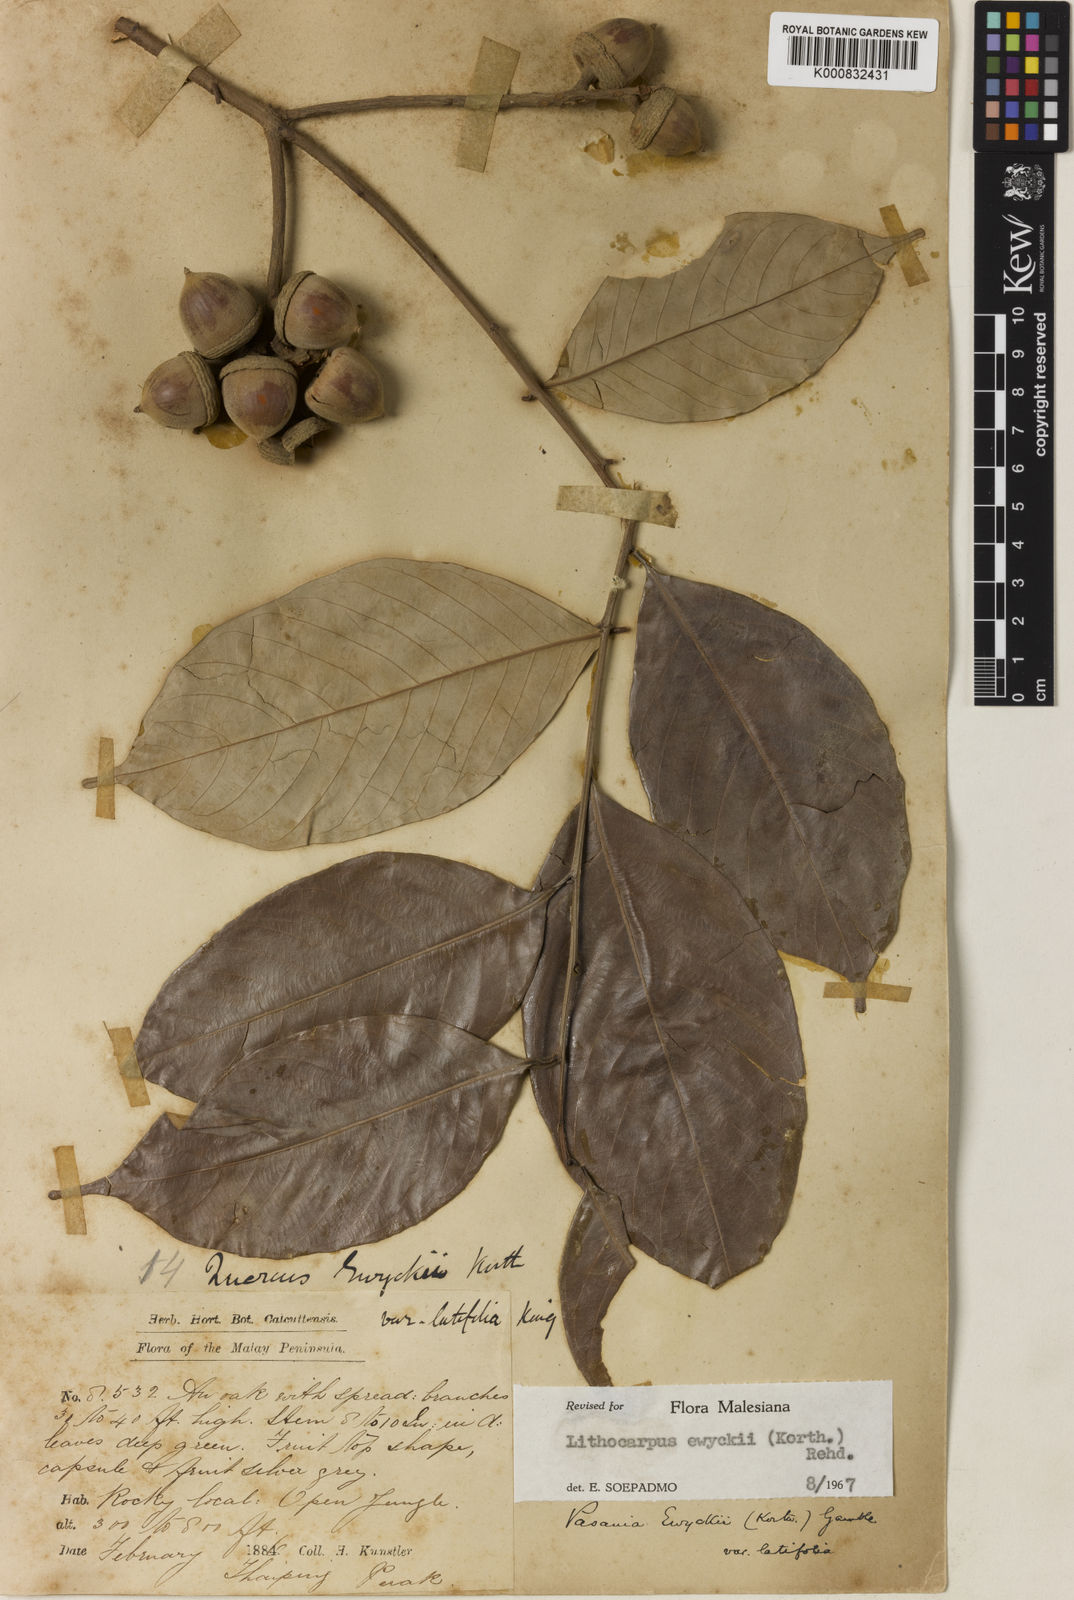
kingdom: Plantae
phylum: Tracheophyta
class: Magnoliopsida
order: Fagales
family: Fagaceae
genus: Lithocarpus
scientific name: Lithocarpus ewyckii
